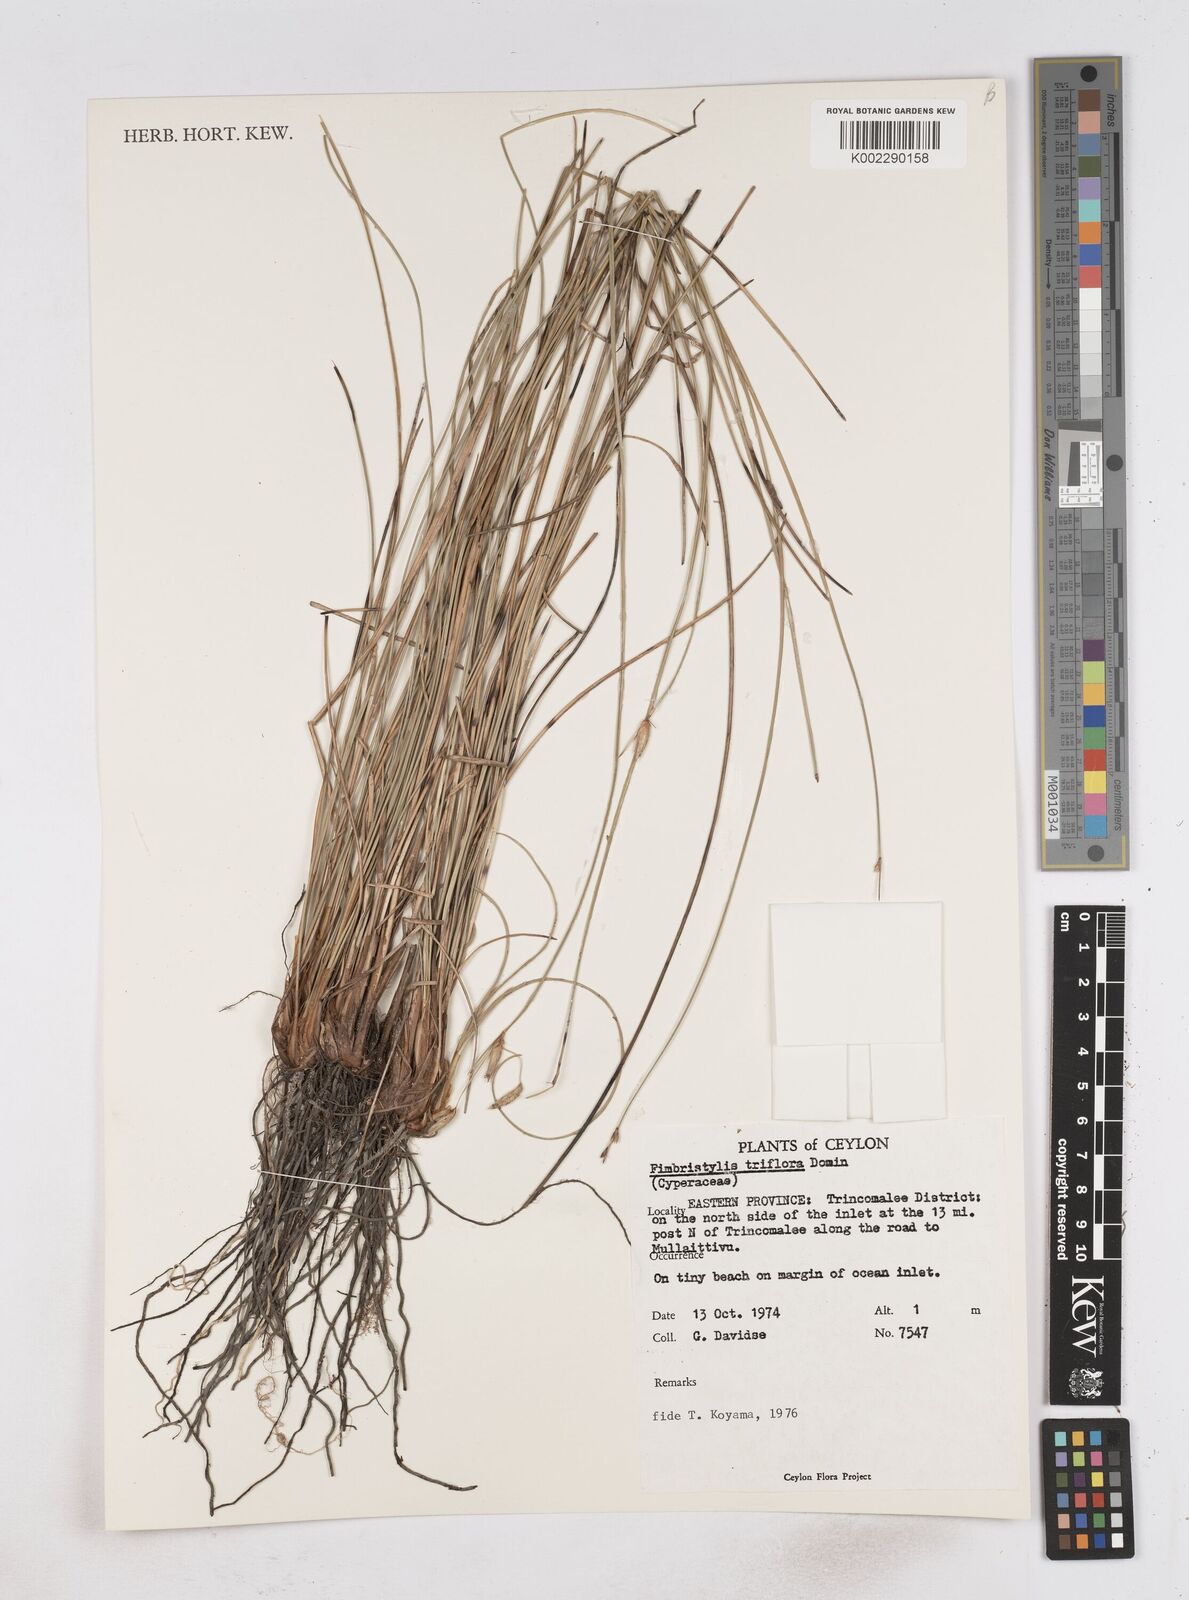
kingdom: Plantae
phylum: Tracheophyta
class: Liliopsida
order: Poales
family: Cyperaceae
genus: Abildgaardia
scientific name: Abildgaardia triflora
